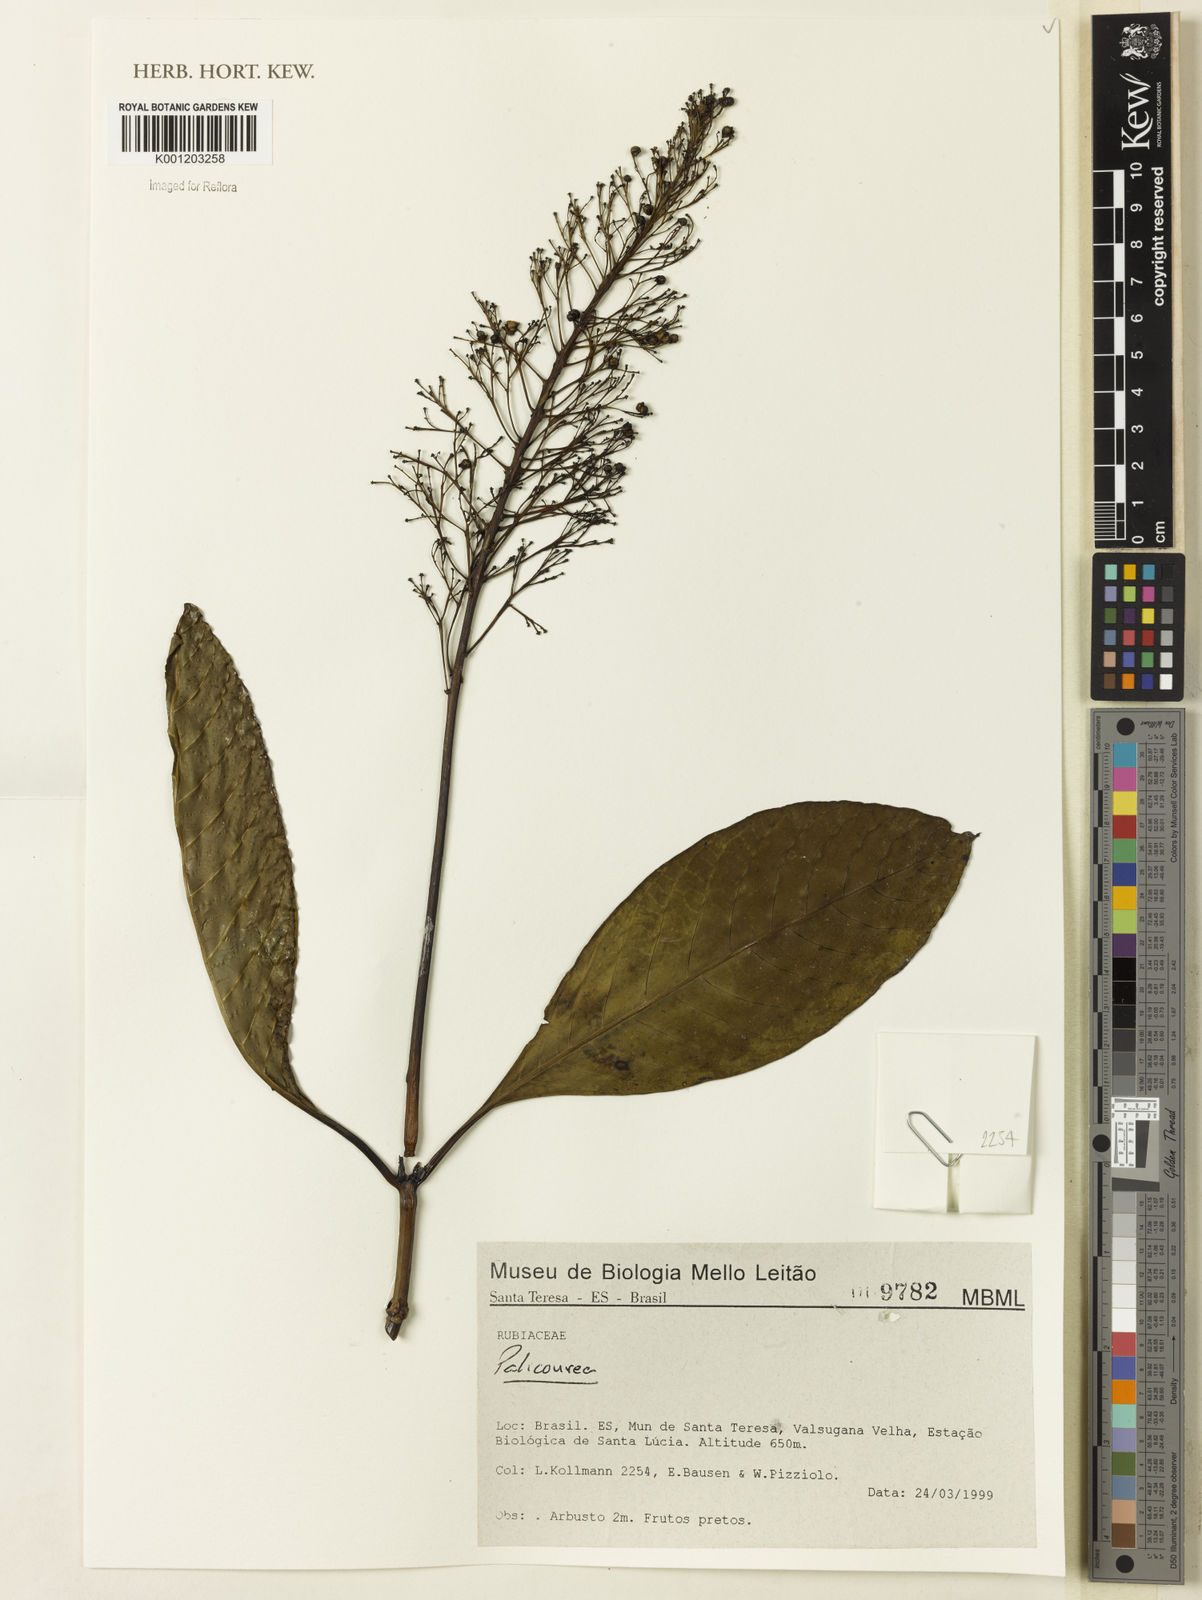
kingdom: Plantae
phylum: Tracheophyta
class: Magnoliopsida
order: Gentianales
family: Rubiaceae
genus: Palicourea
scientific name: Palicourea
